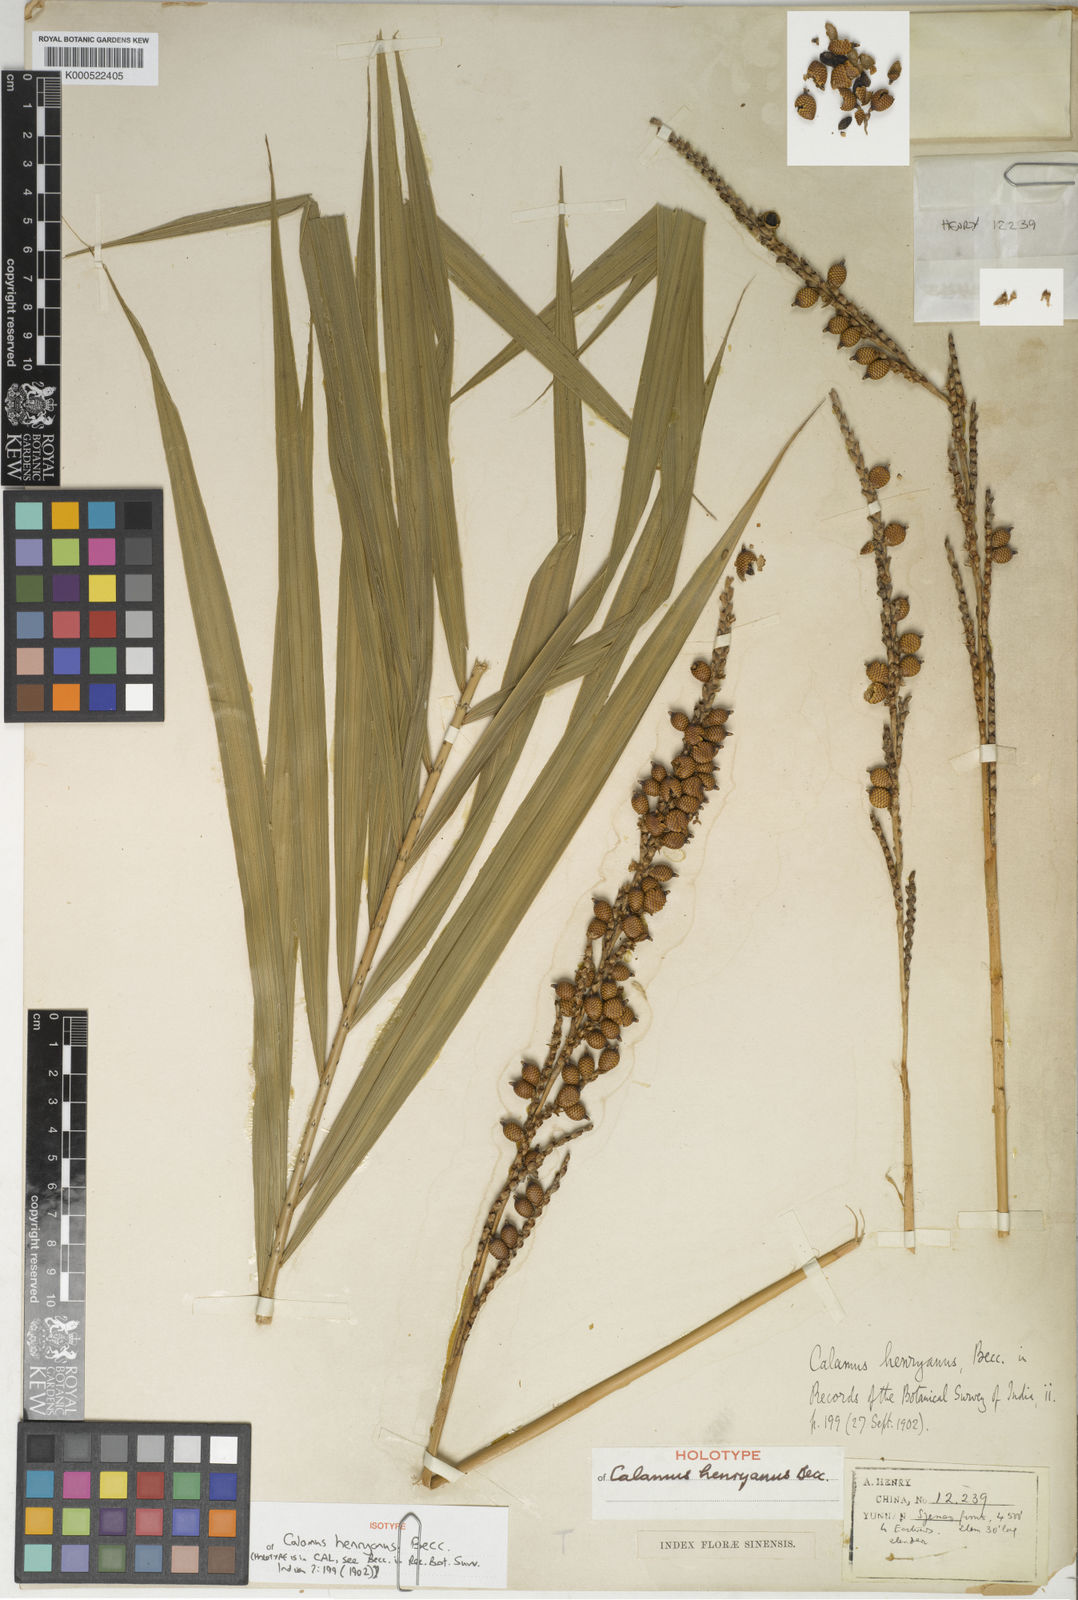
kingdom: Plantae
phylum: Tracheophyta
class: Liliopsida
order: Arecales
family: Arecaceae
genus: Calamus
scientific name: Calamus henryanus
